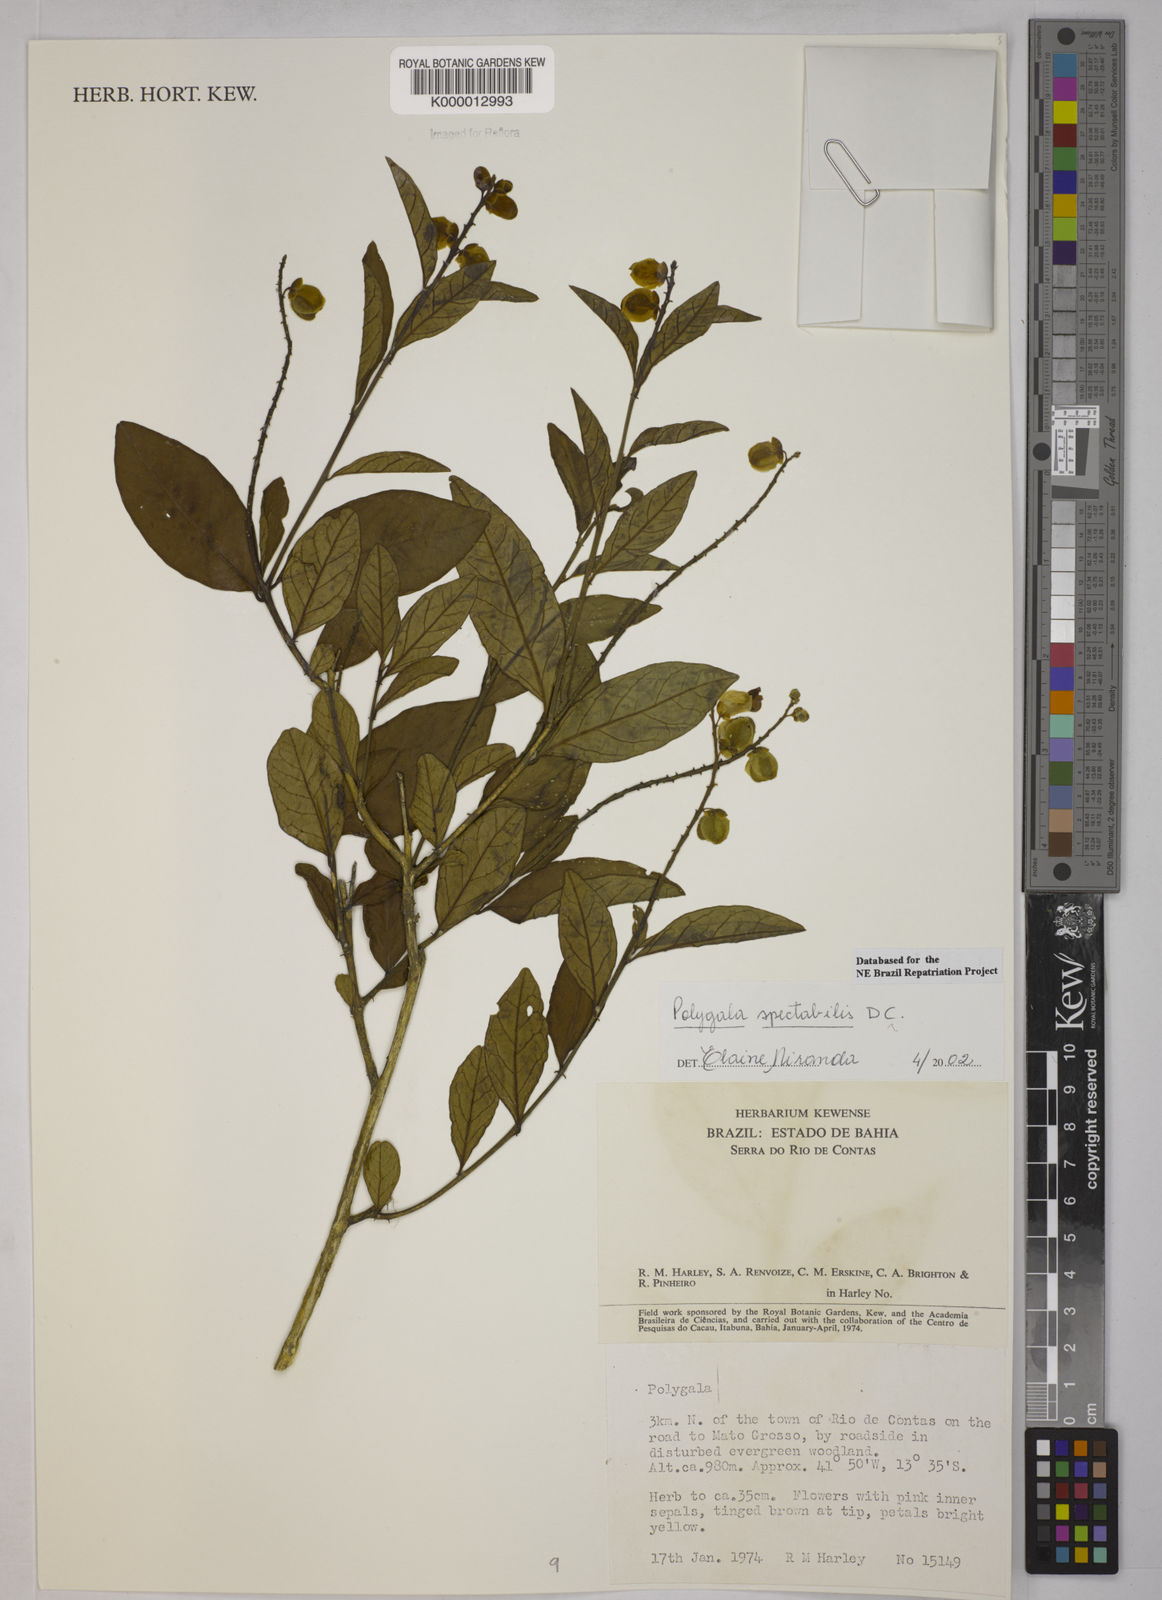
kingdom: Plantae
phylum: Tracheophyta
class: Magnoliopsida
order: Fabales
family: Polygalaceae
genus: Caamembeca
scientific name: Caamembeca spectabilis
